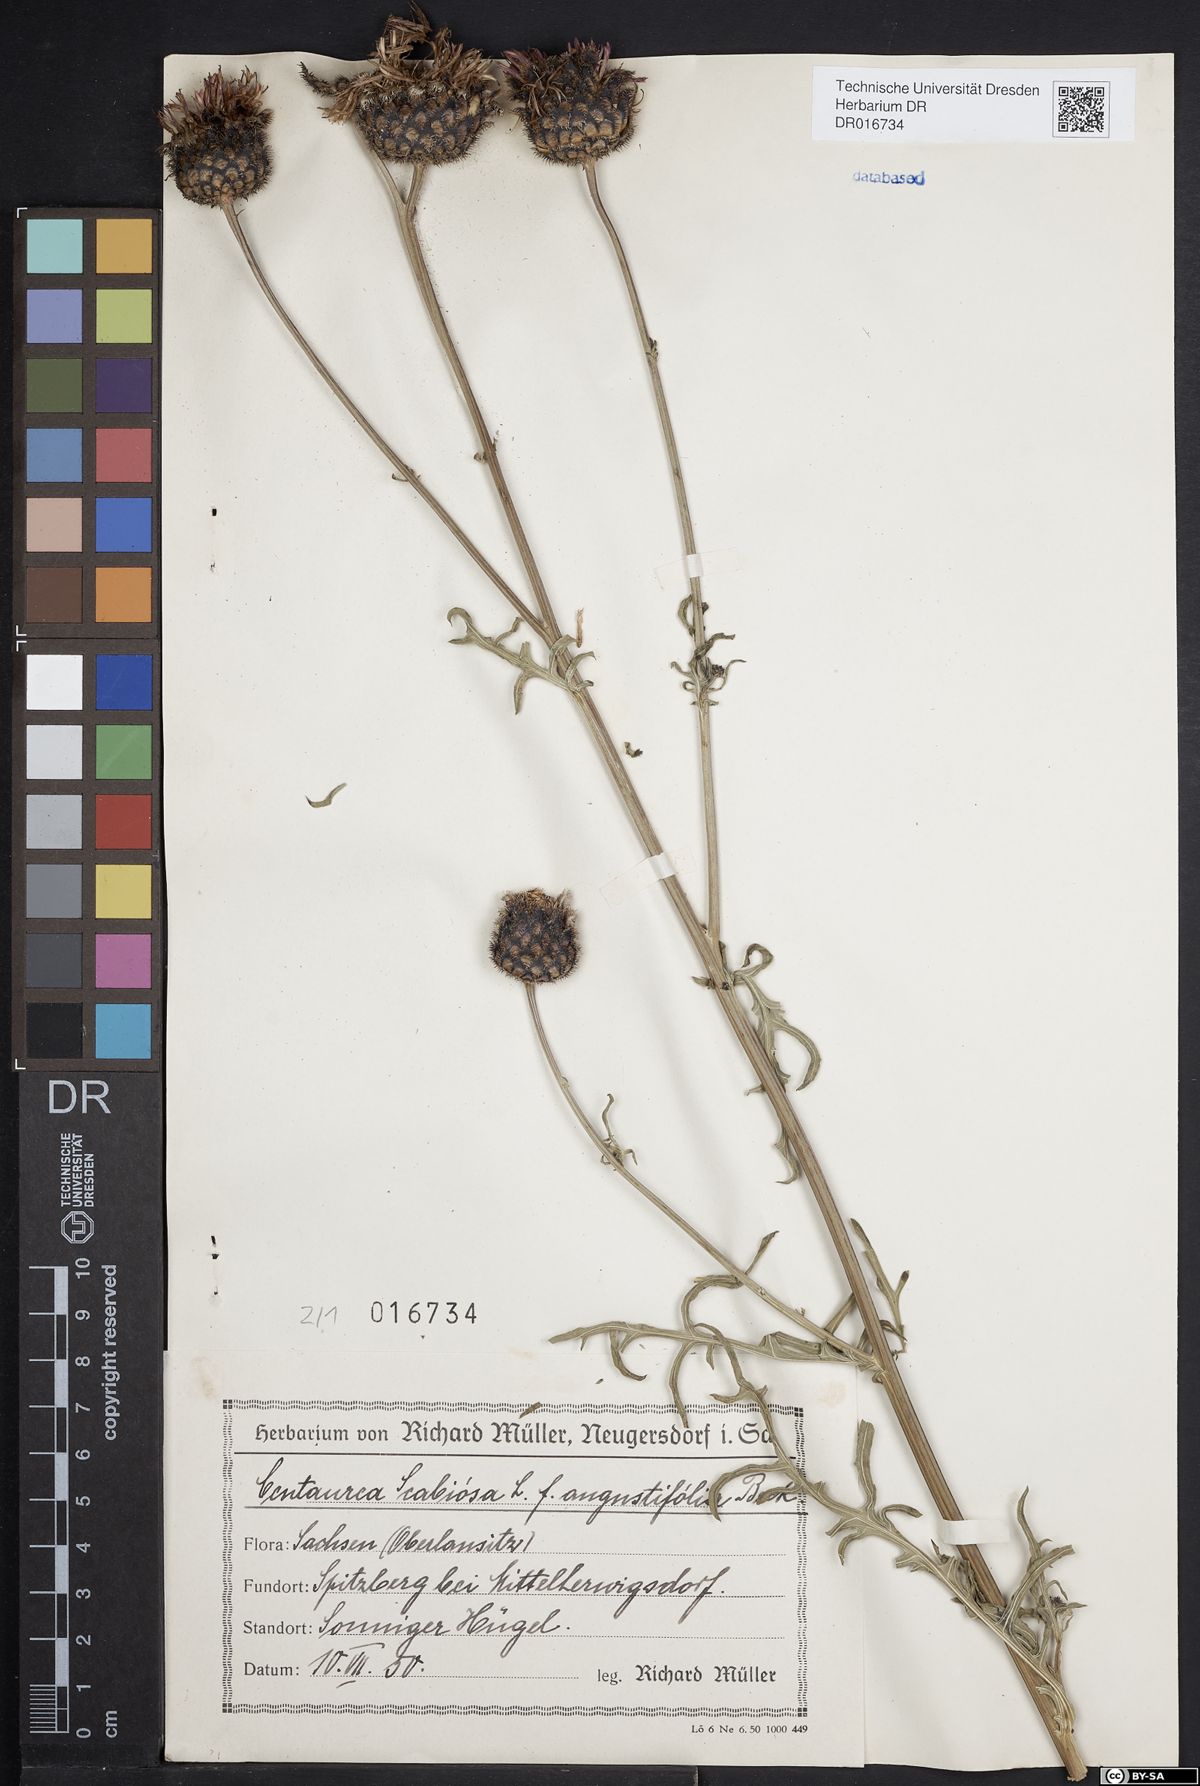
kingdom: Plantae
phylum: Tracheophyta
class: Magnoliopsida
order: Asterales
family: Asteraceae
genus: Centaurea
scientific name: Centaurea scabiosa
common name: Greater knapweed
